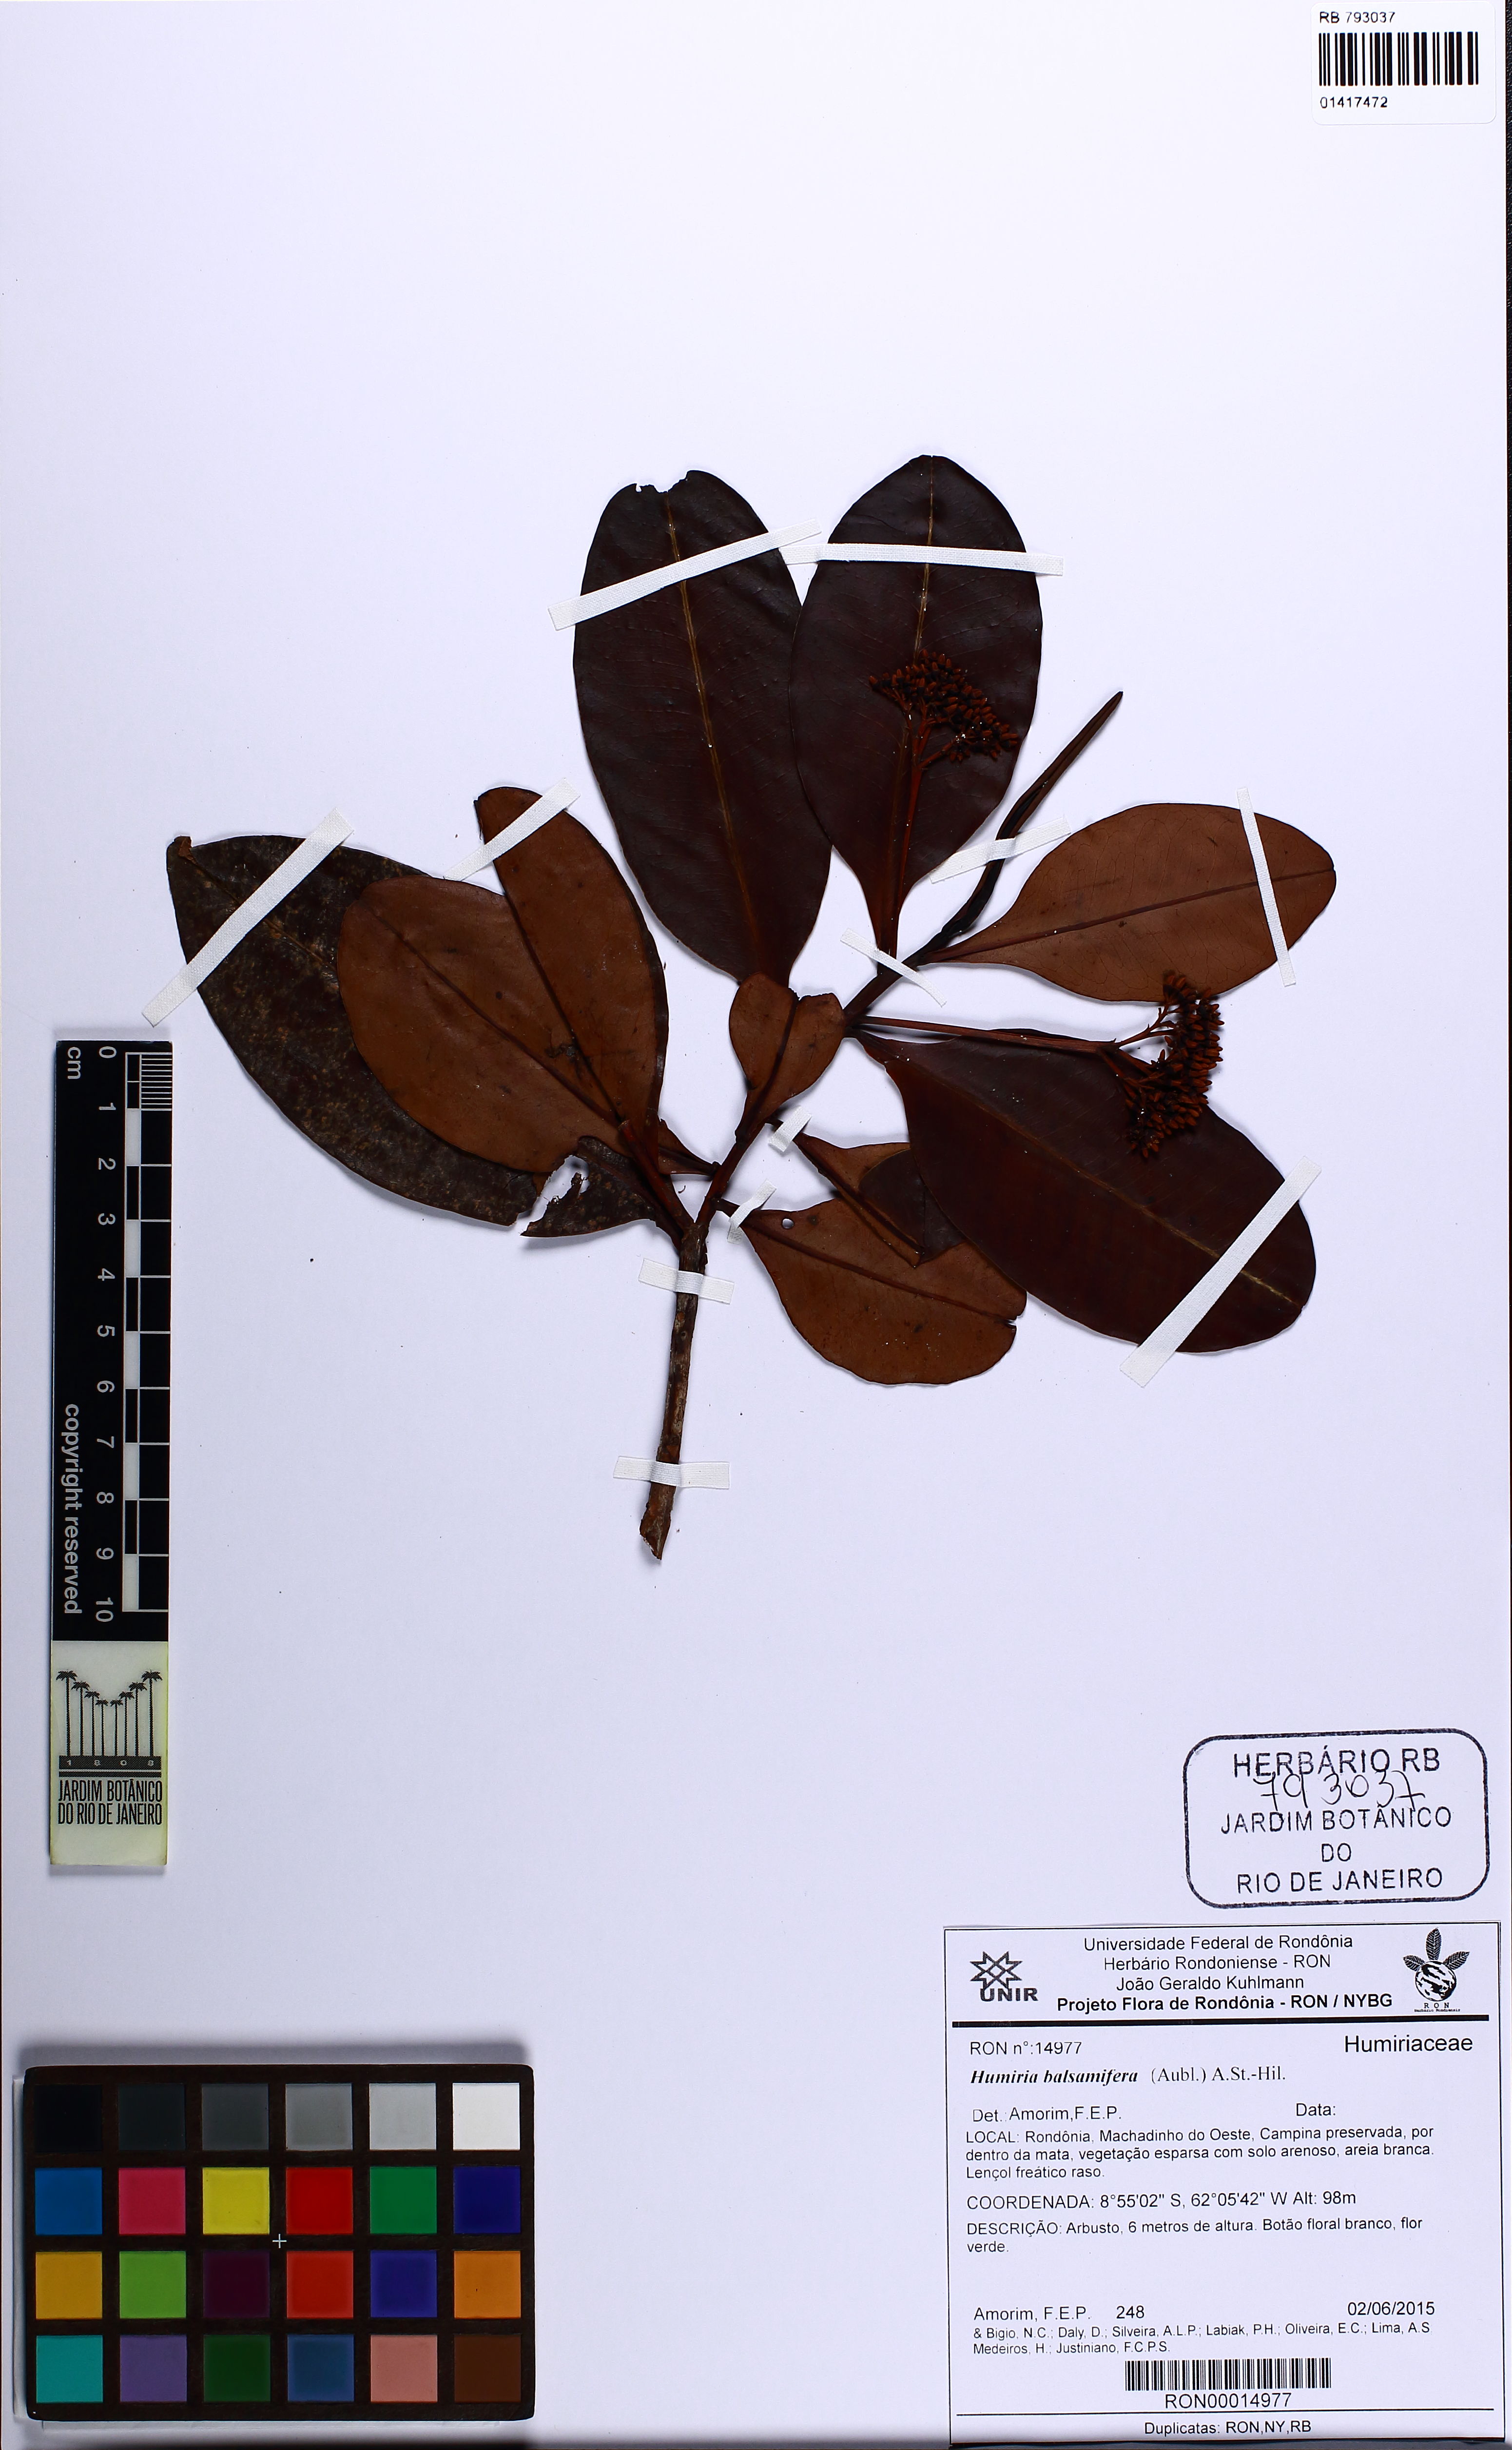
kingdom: Plantae
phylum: Tracheophyta
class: Magnoliopsida
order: Malpighiales
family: Humiriaceae
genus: Humiria
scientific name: Humiria balsamifera
